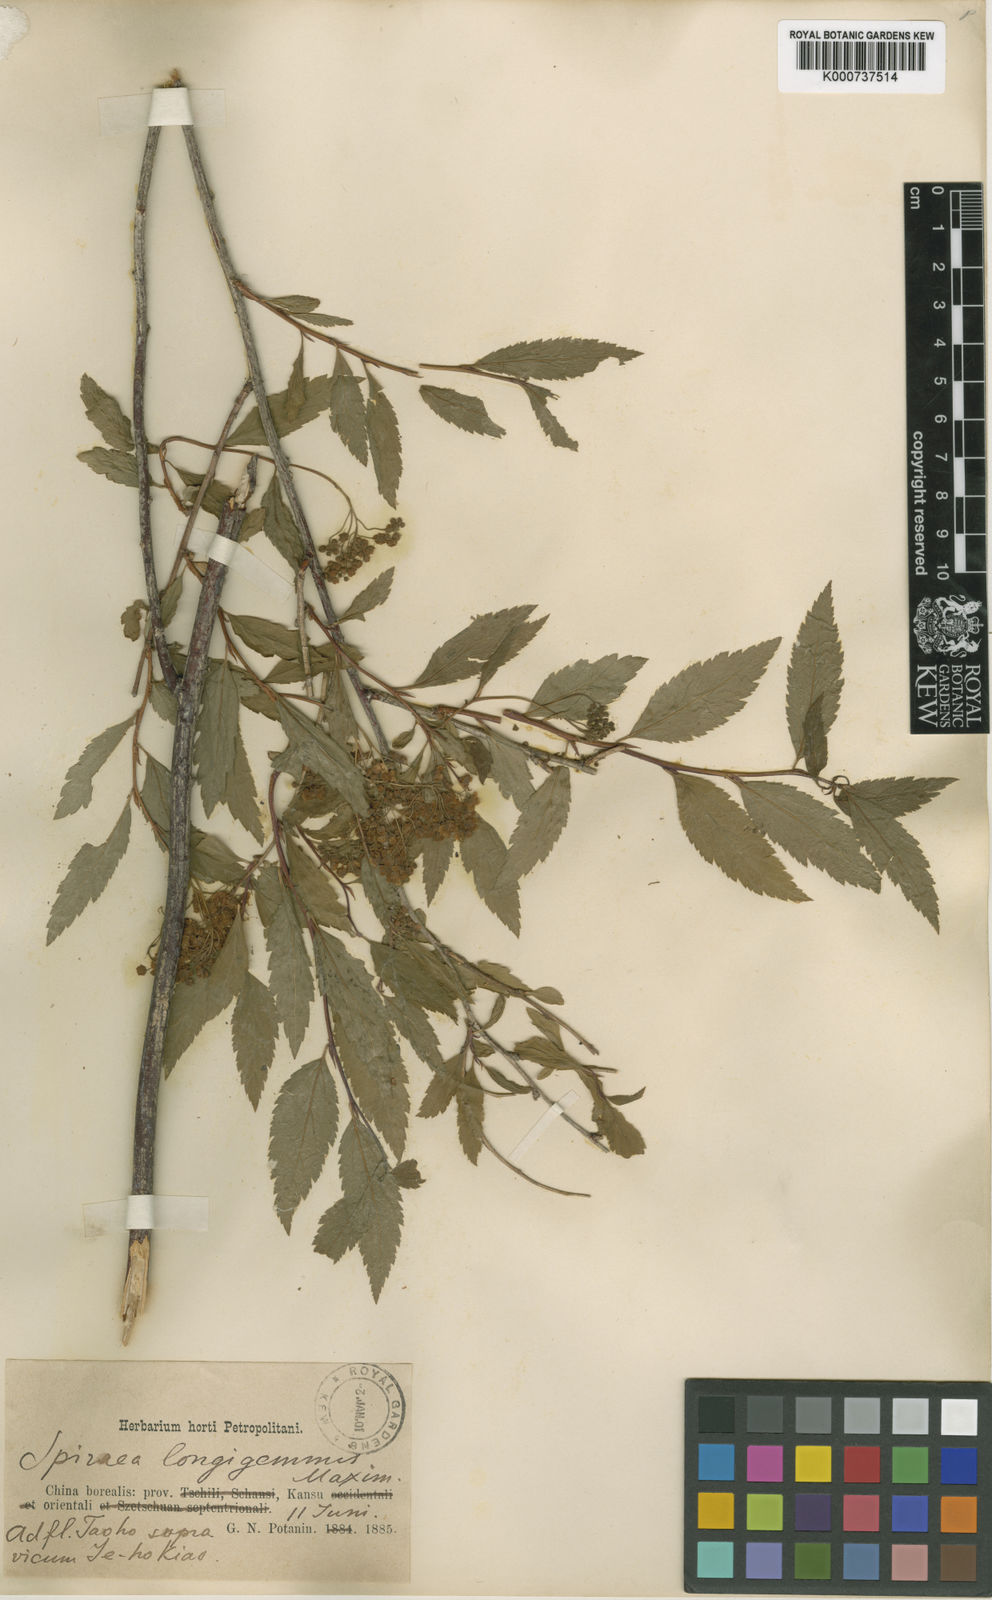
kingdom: Plantae
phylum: Tracheophyta
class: Magnoliopsida
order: Rosales
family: Rosaceae
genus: Spiraea
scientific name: Spiraea longigemmis
